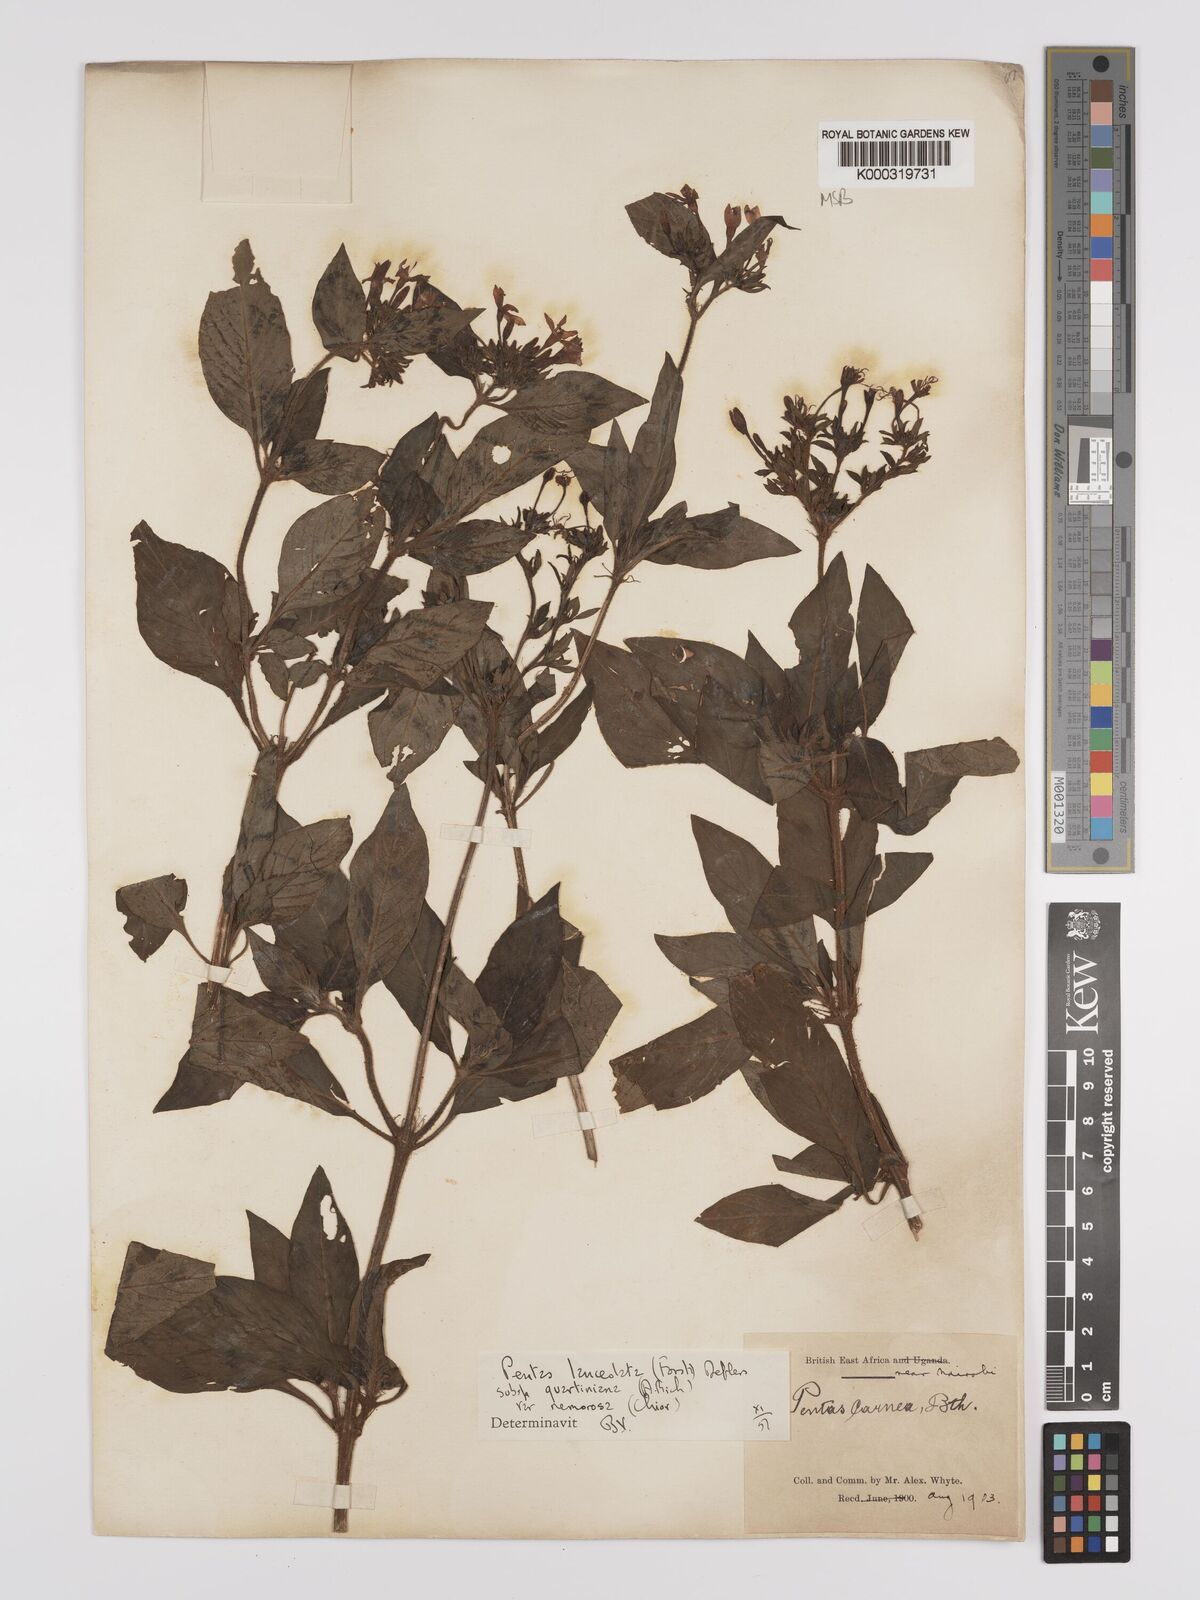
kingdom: Plantae
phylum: Tracheophyta
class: Magnoliopsida
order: Gentianales
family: Rubiaceae
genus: Pentas
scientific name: Pentas lanceolata
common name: Egyptian starcluster
